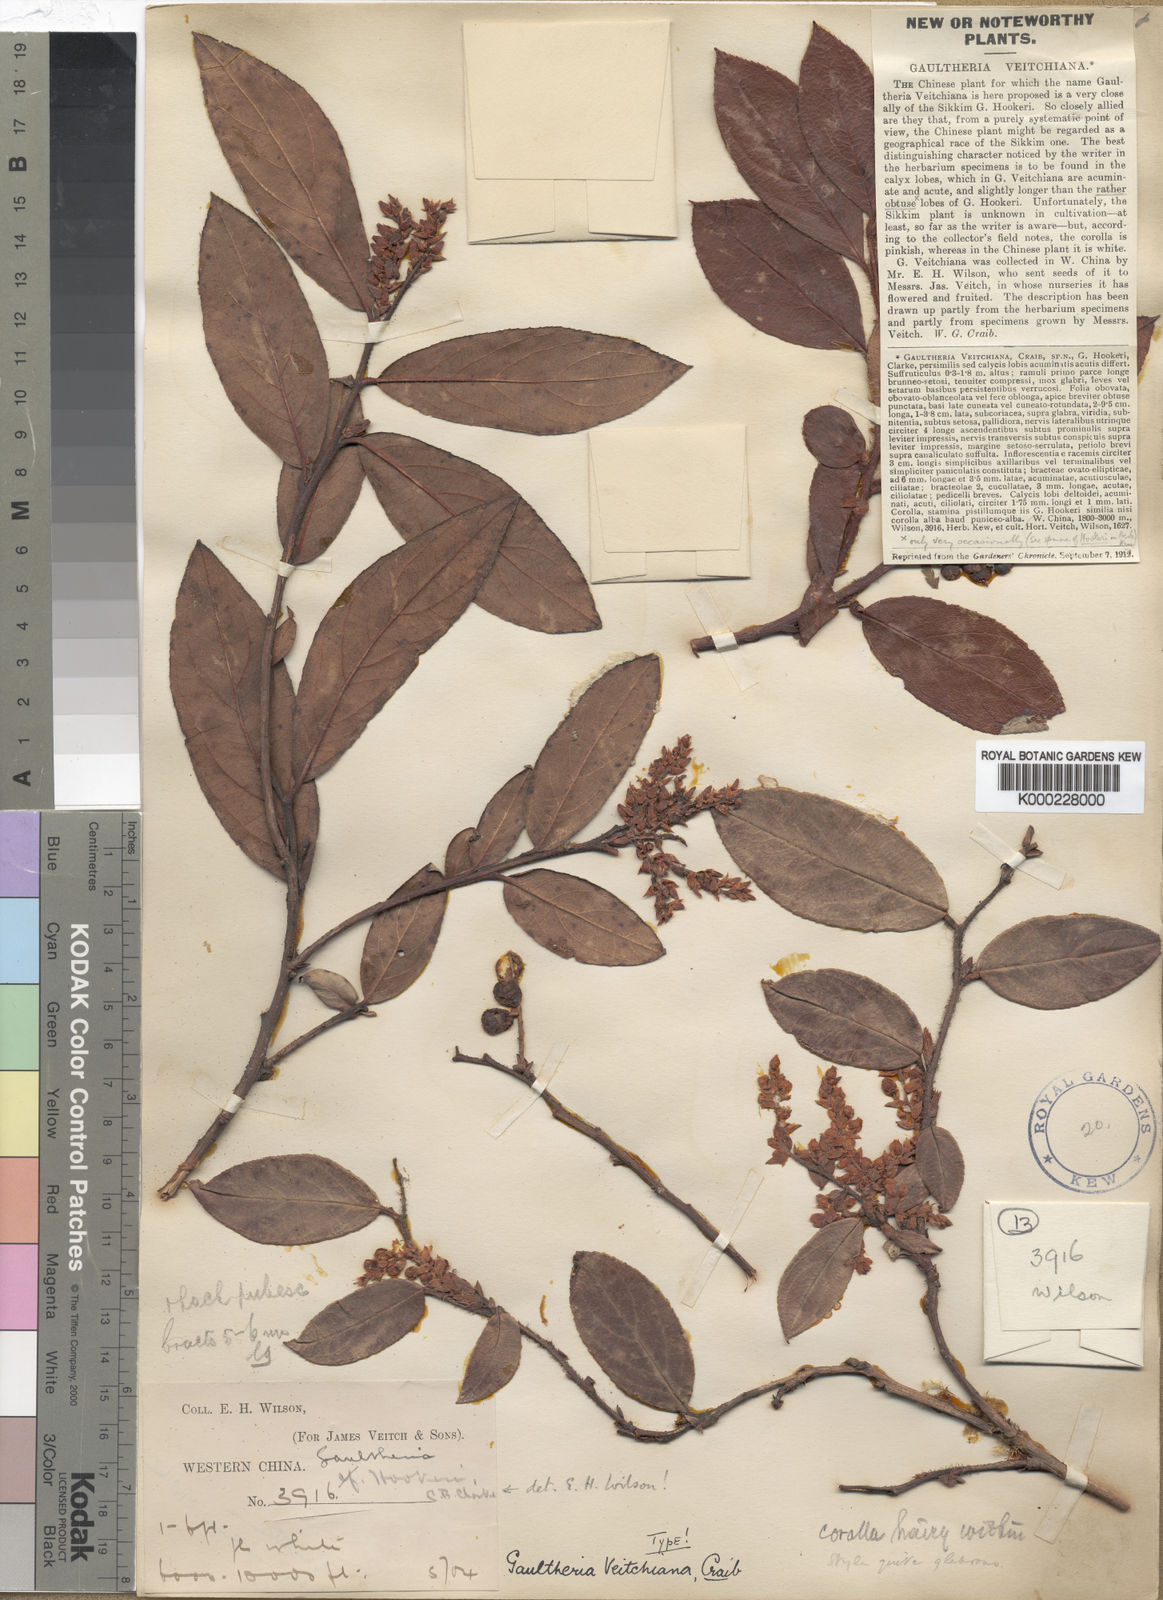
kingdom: Plantae
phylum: Tracheophyta
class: Magnoliopsida
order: Ericales
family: Ericaceae
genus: Gaultheria
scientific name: Gaultheria hookeri
